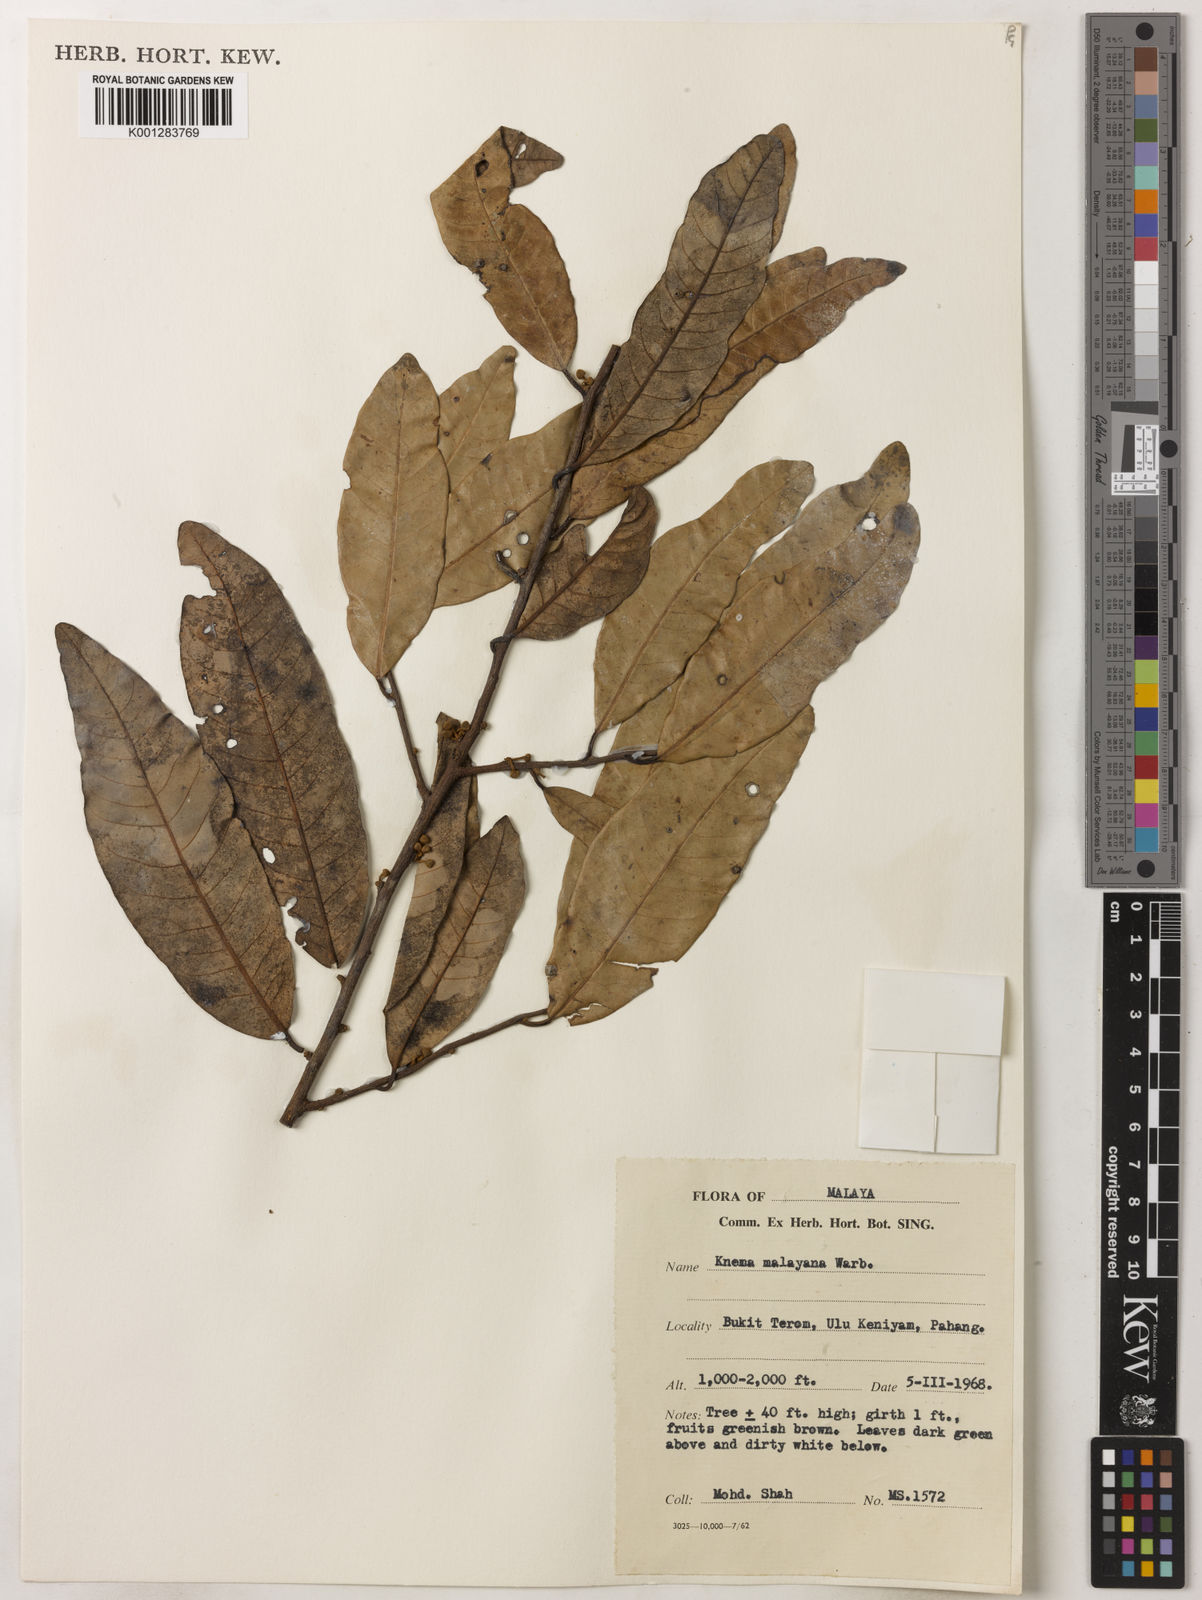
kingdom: Plantae
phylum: Tracheophyta
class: Magnoliopsida
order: Magnoliales
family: Myristicaceae
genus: Knema
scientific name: Knema malayana
